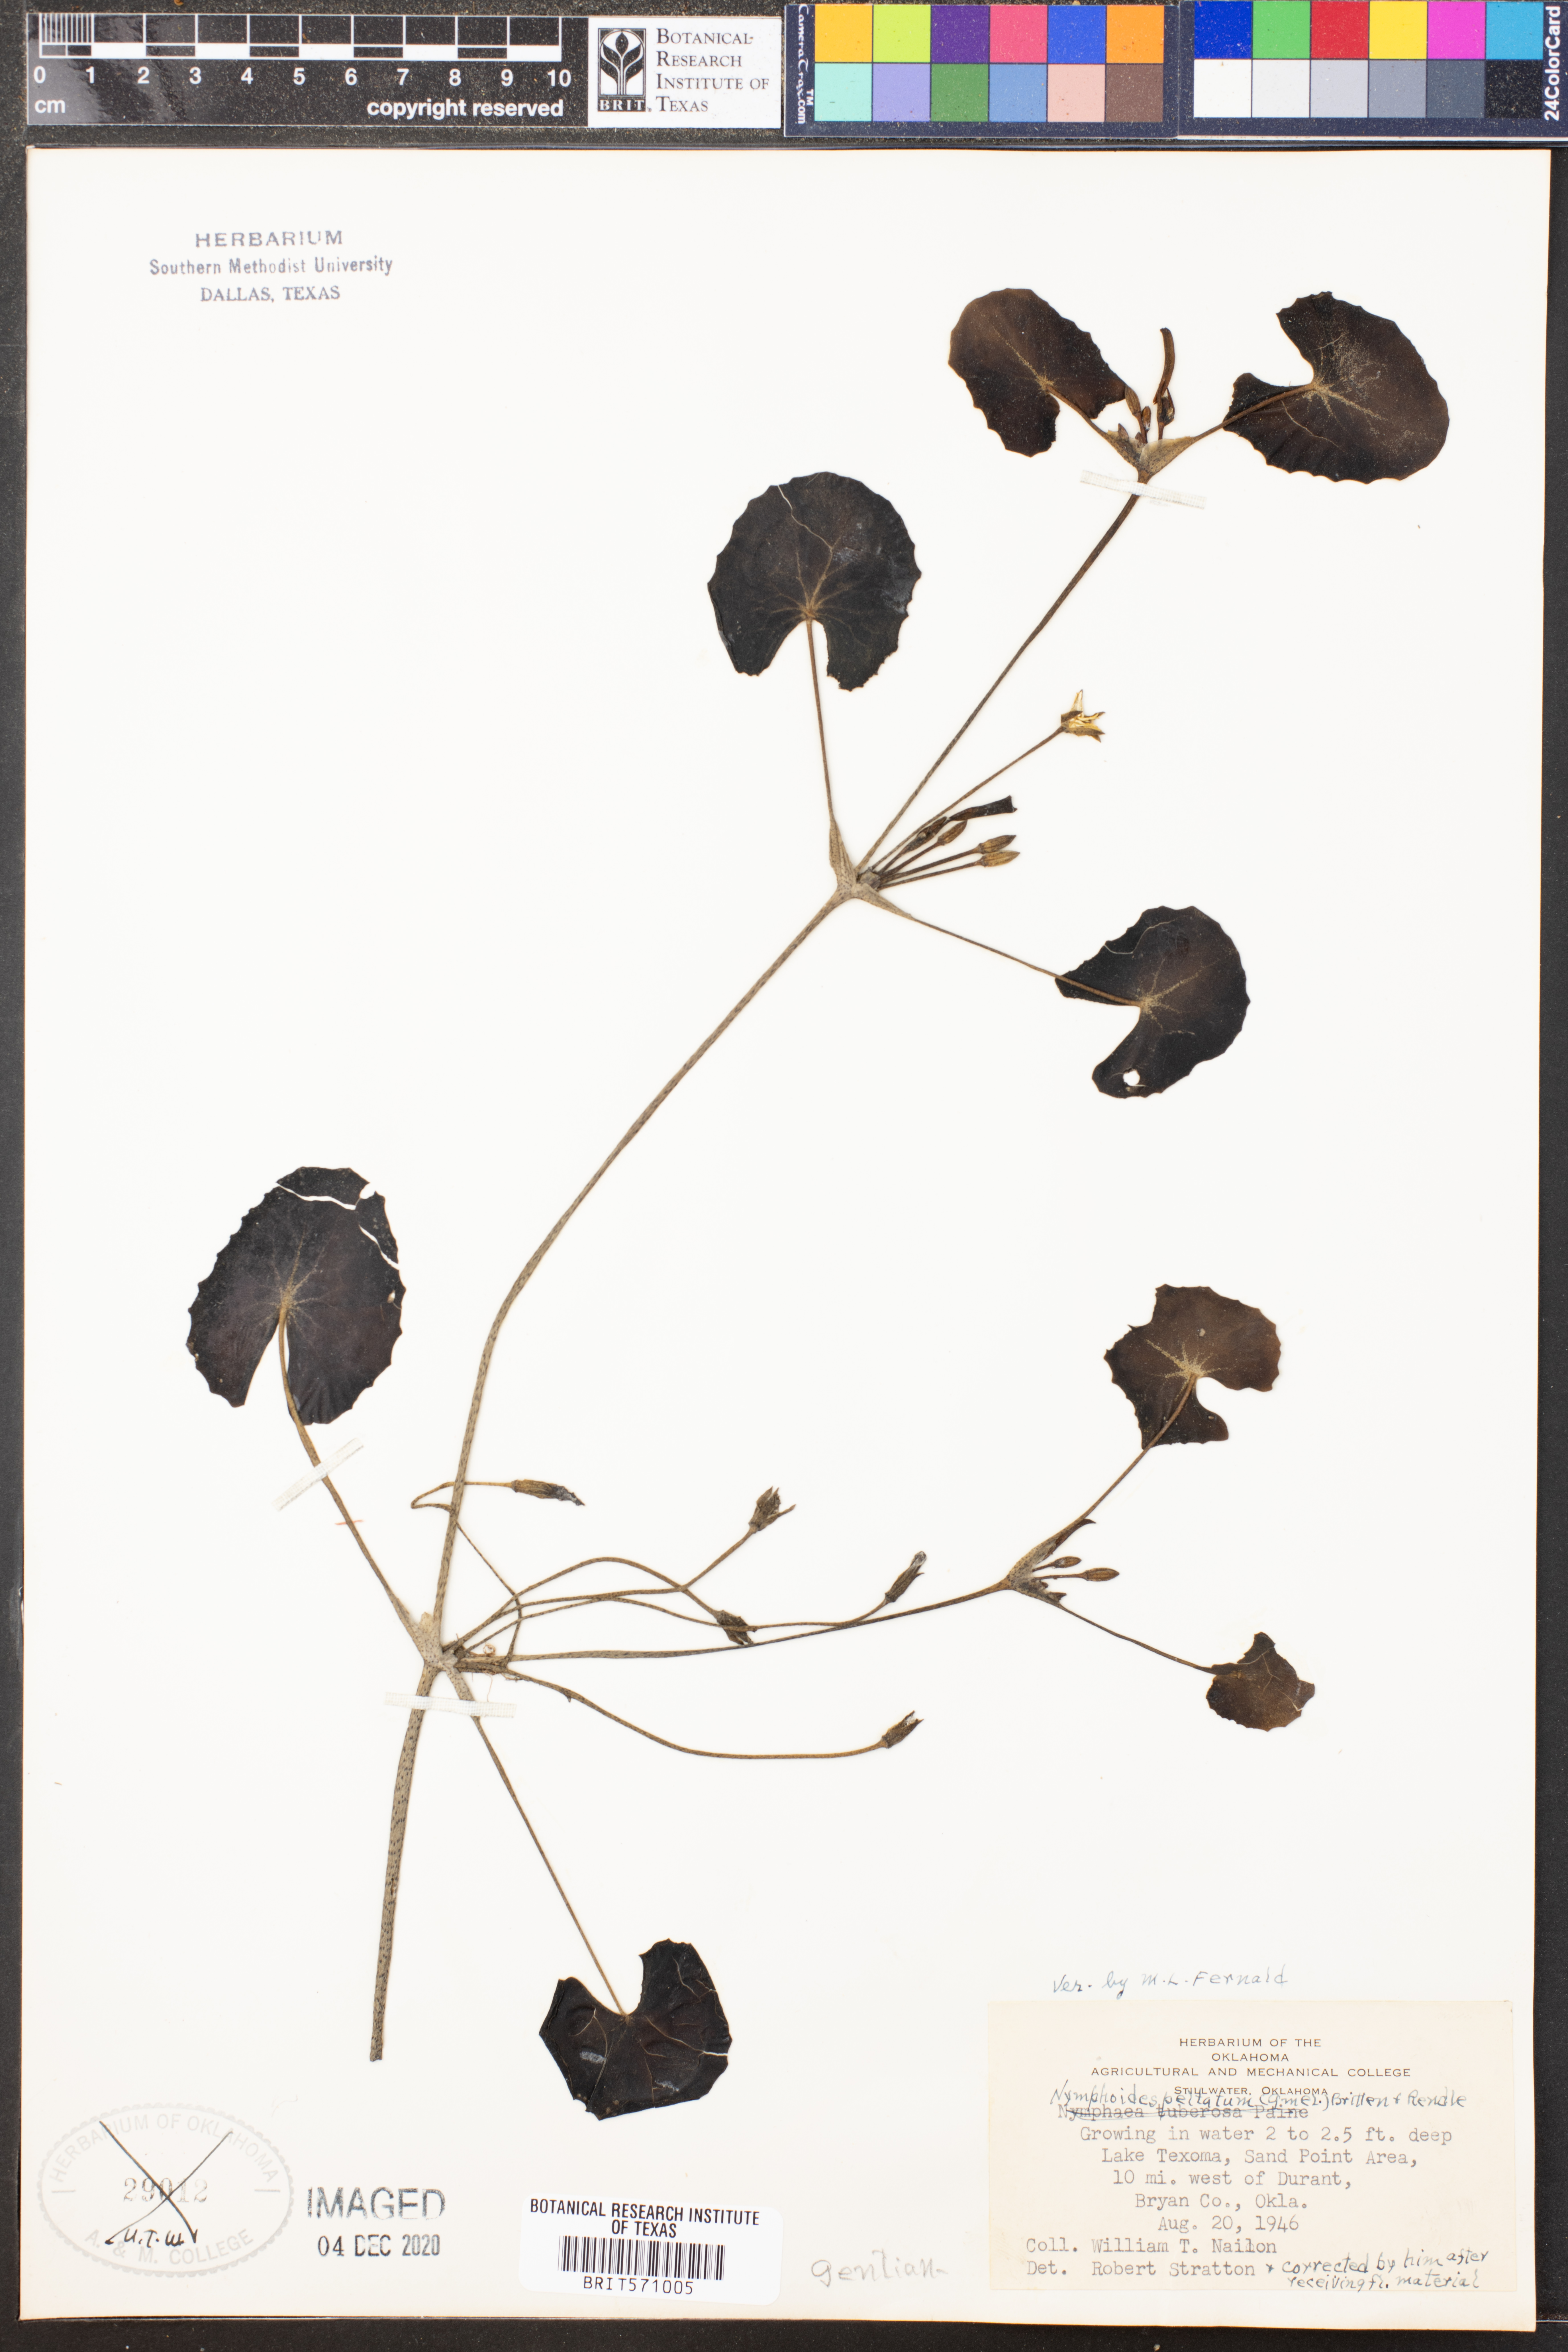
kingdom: Plantae
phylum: Tracheophyta
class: Magnoliopsida
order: Asterales
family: Menyanthaceae
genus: Nymphoides
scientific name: Nymphoides peltata
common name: Fringed water-lily
